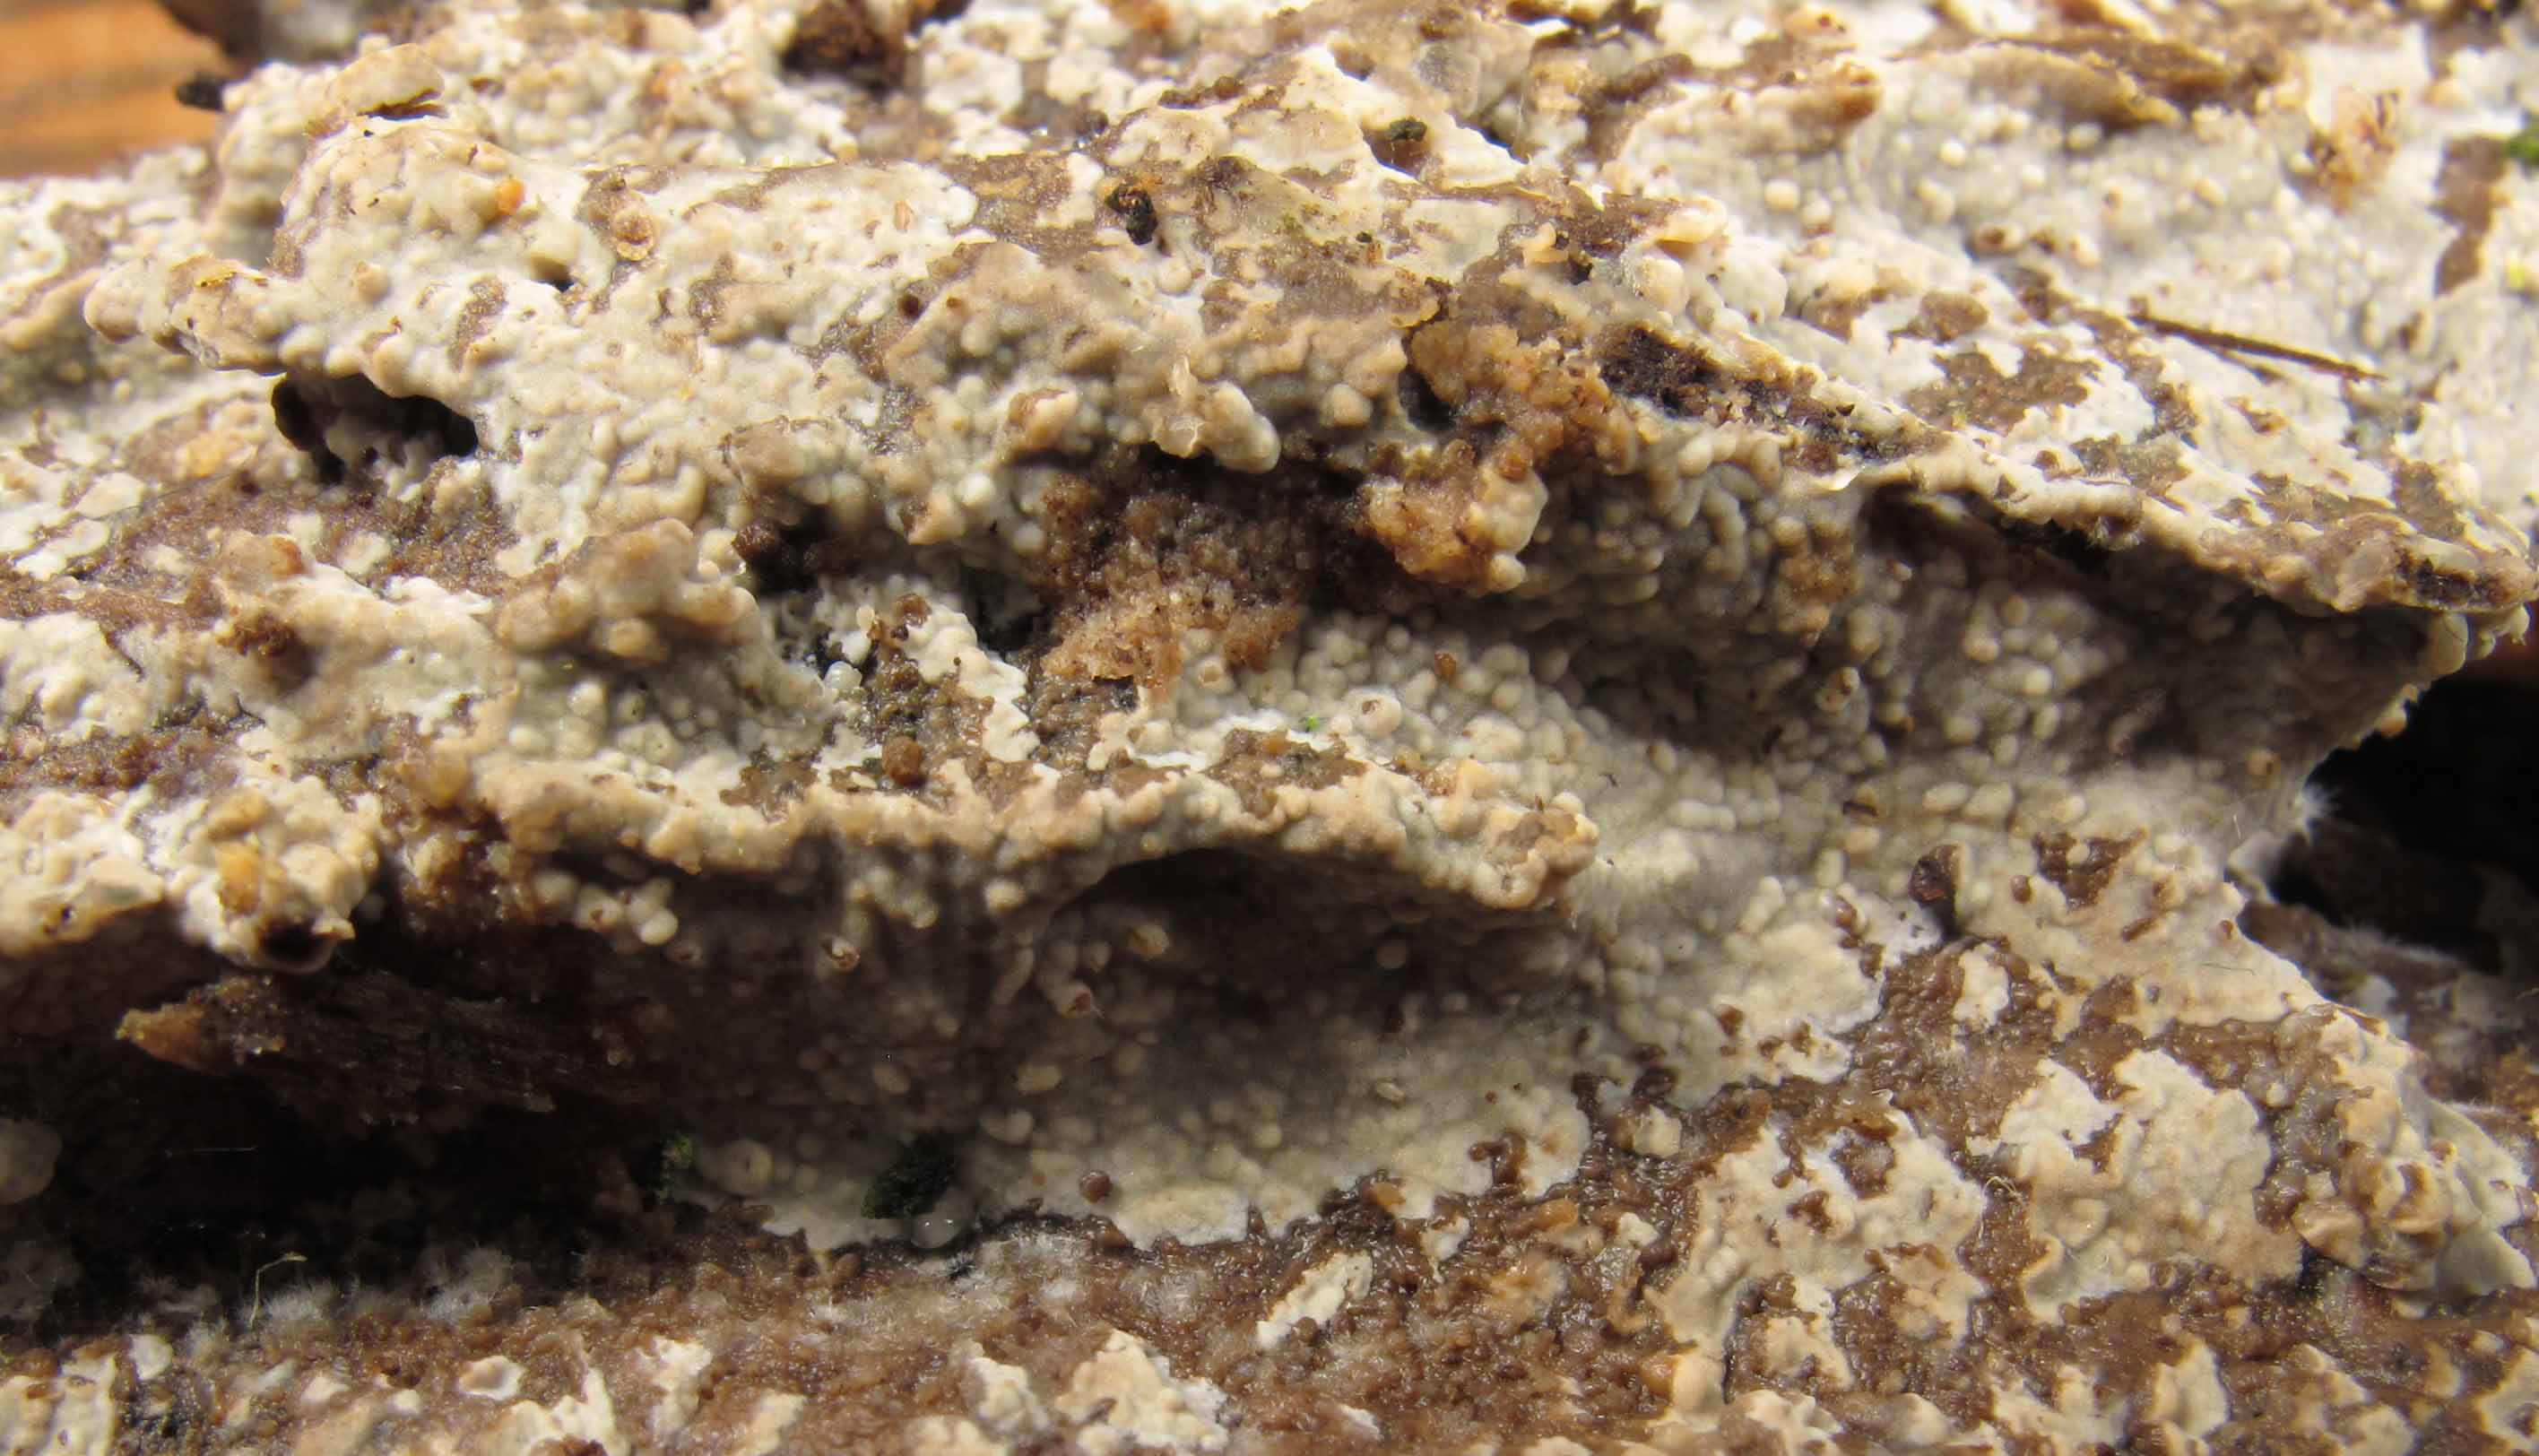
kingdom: Fungi
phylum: Basidiomycota
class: Agaricomycetes
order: Hymenochaetales
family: Rickenellaceae
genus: Peniophorella
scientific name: Peniophorella praetermissa
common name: almindelig kalkskind
